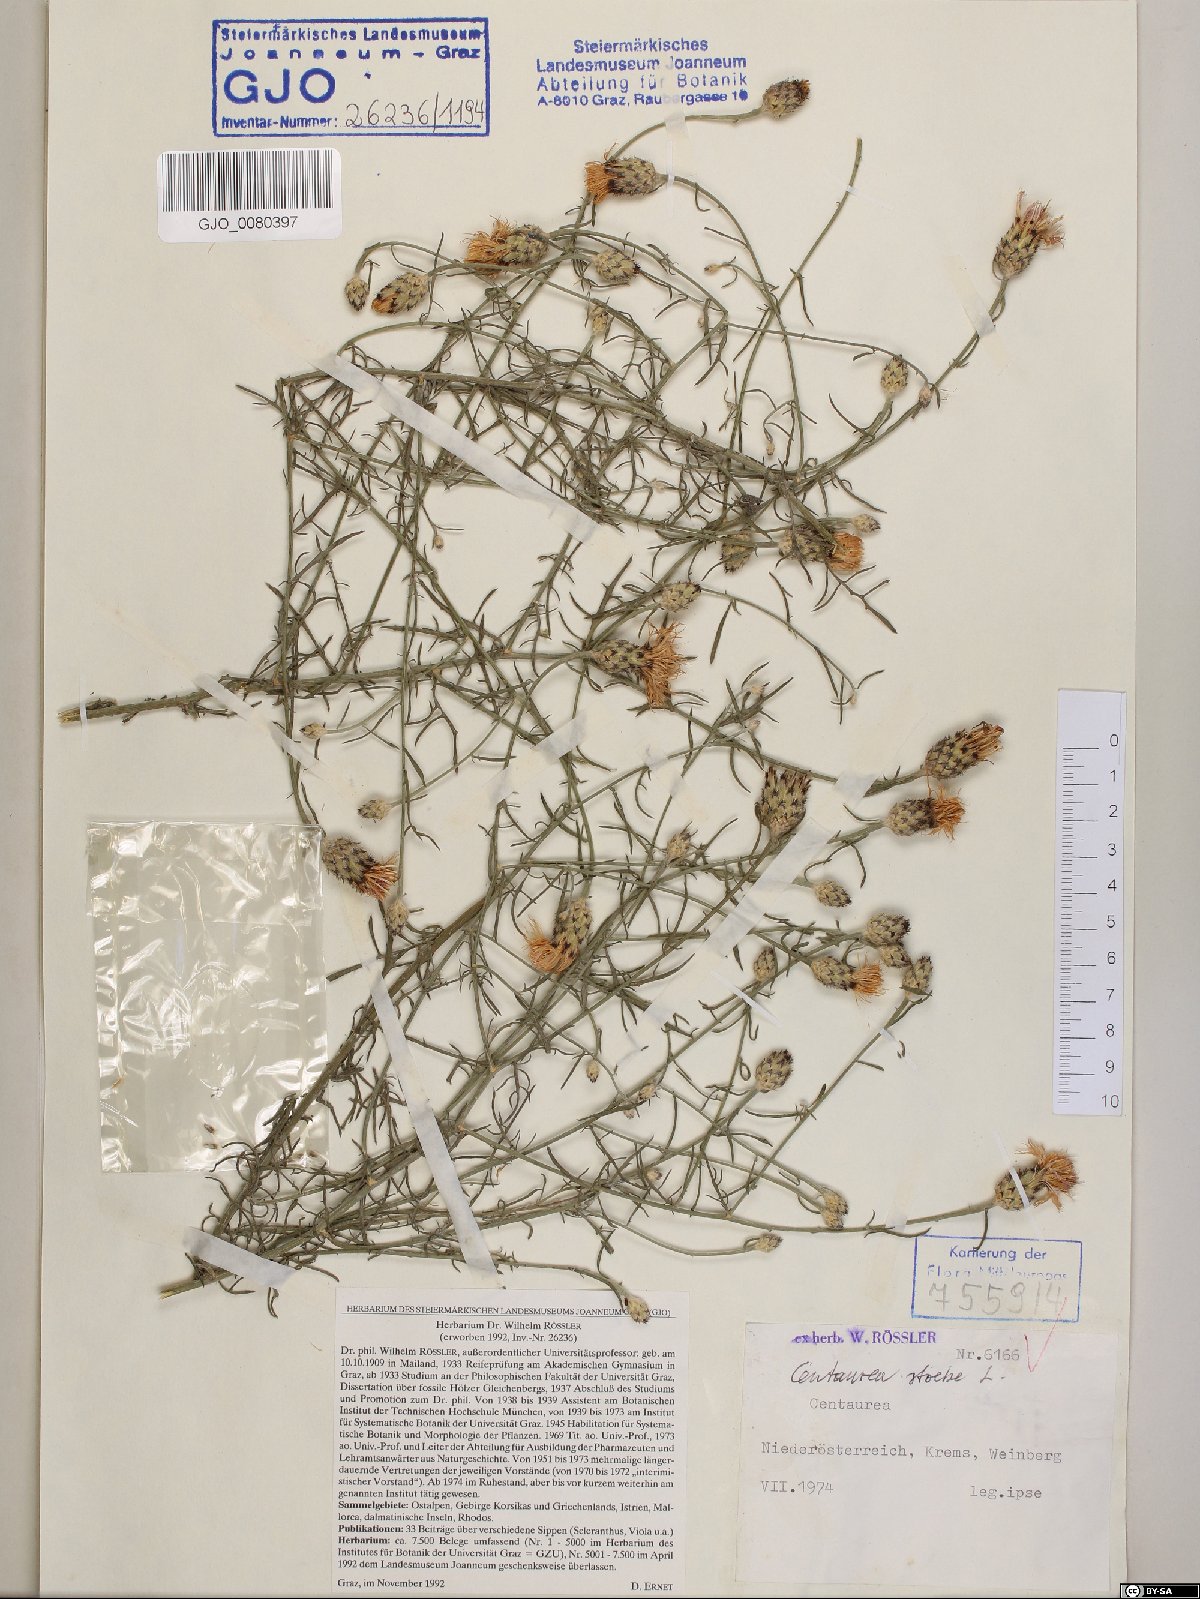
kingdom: Plantae
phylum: Tracheophyta
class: Magnoliopsida
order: Asterales
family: Asteraceae
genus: Centaurea
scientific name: Centaurea stoebe
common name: Spotted knapweed
